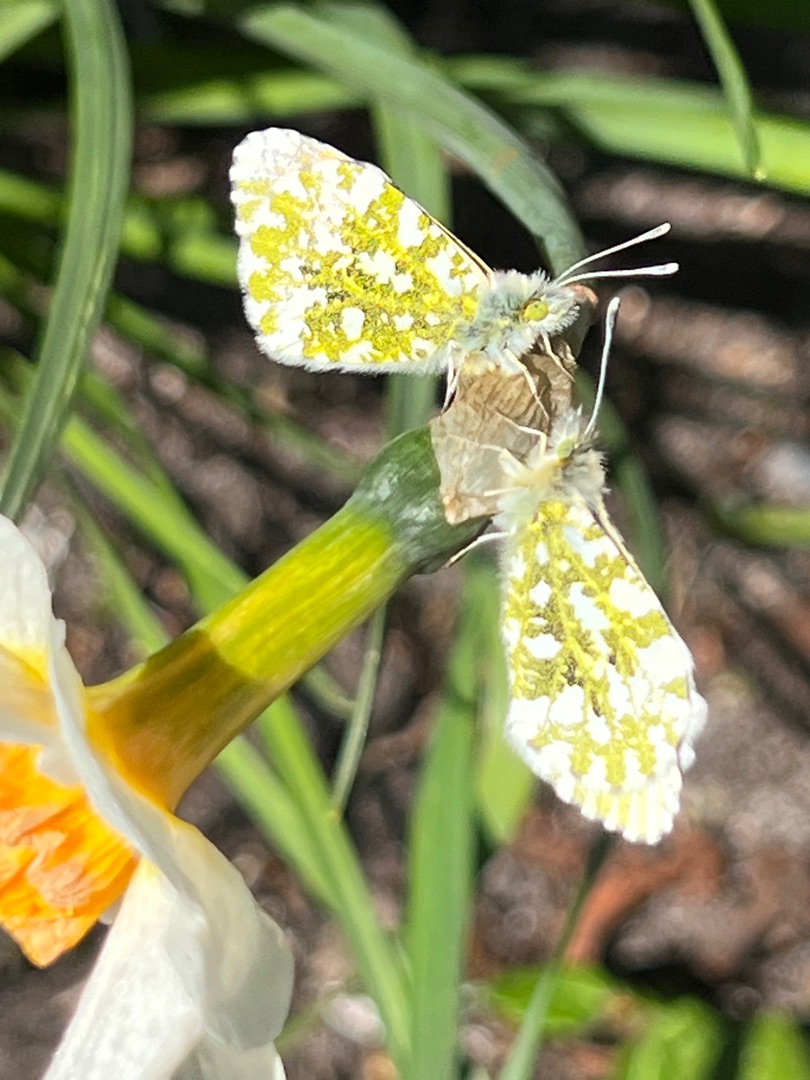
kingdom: Animalia
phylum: Arthropoda
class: Insecta
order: Lepidoptera
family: Pieridae
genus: Anthocharis
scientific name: Anthocharis cardamines
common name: Aurora
